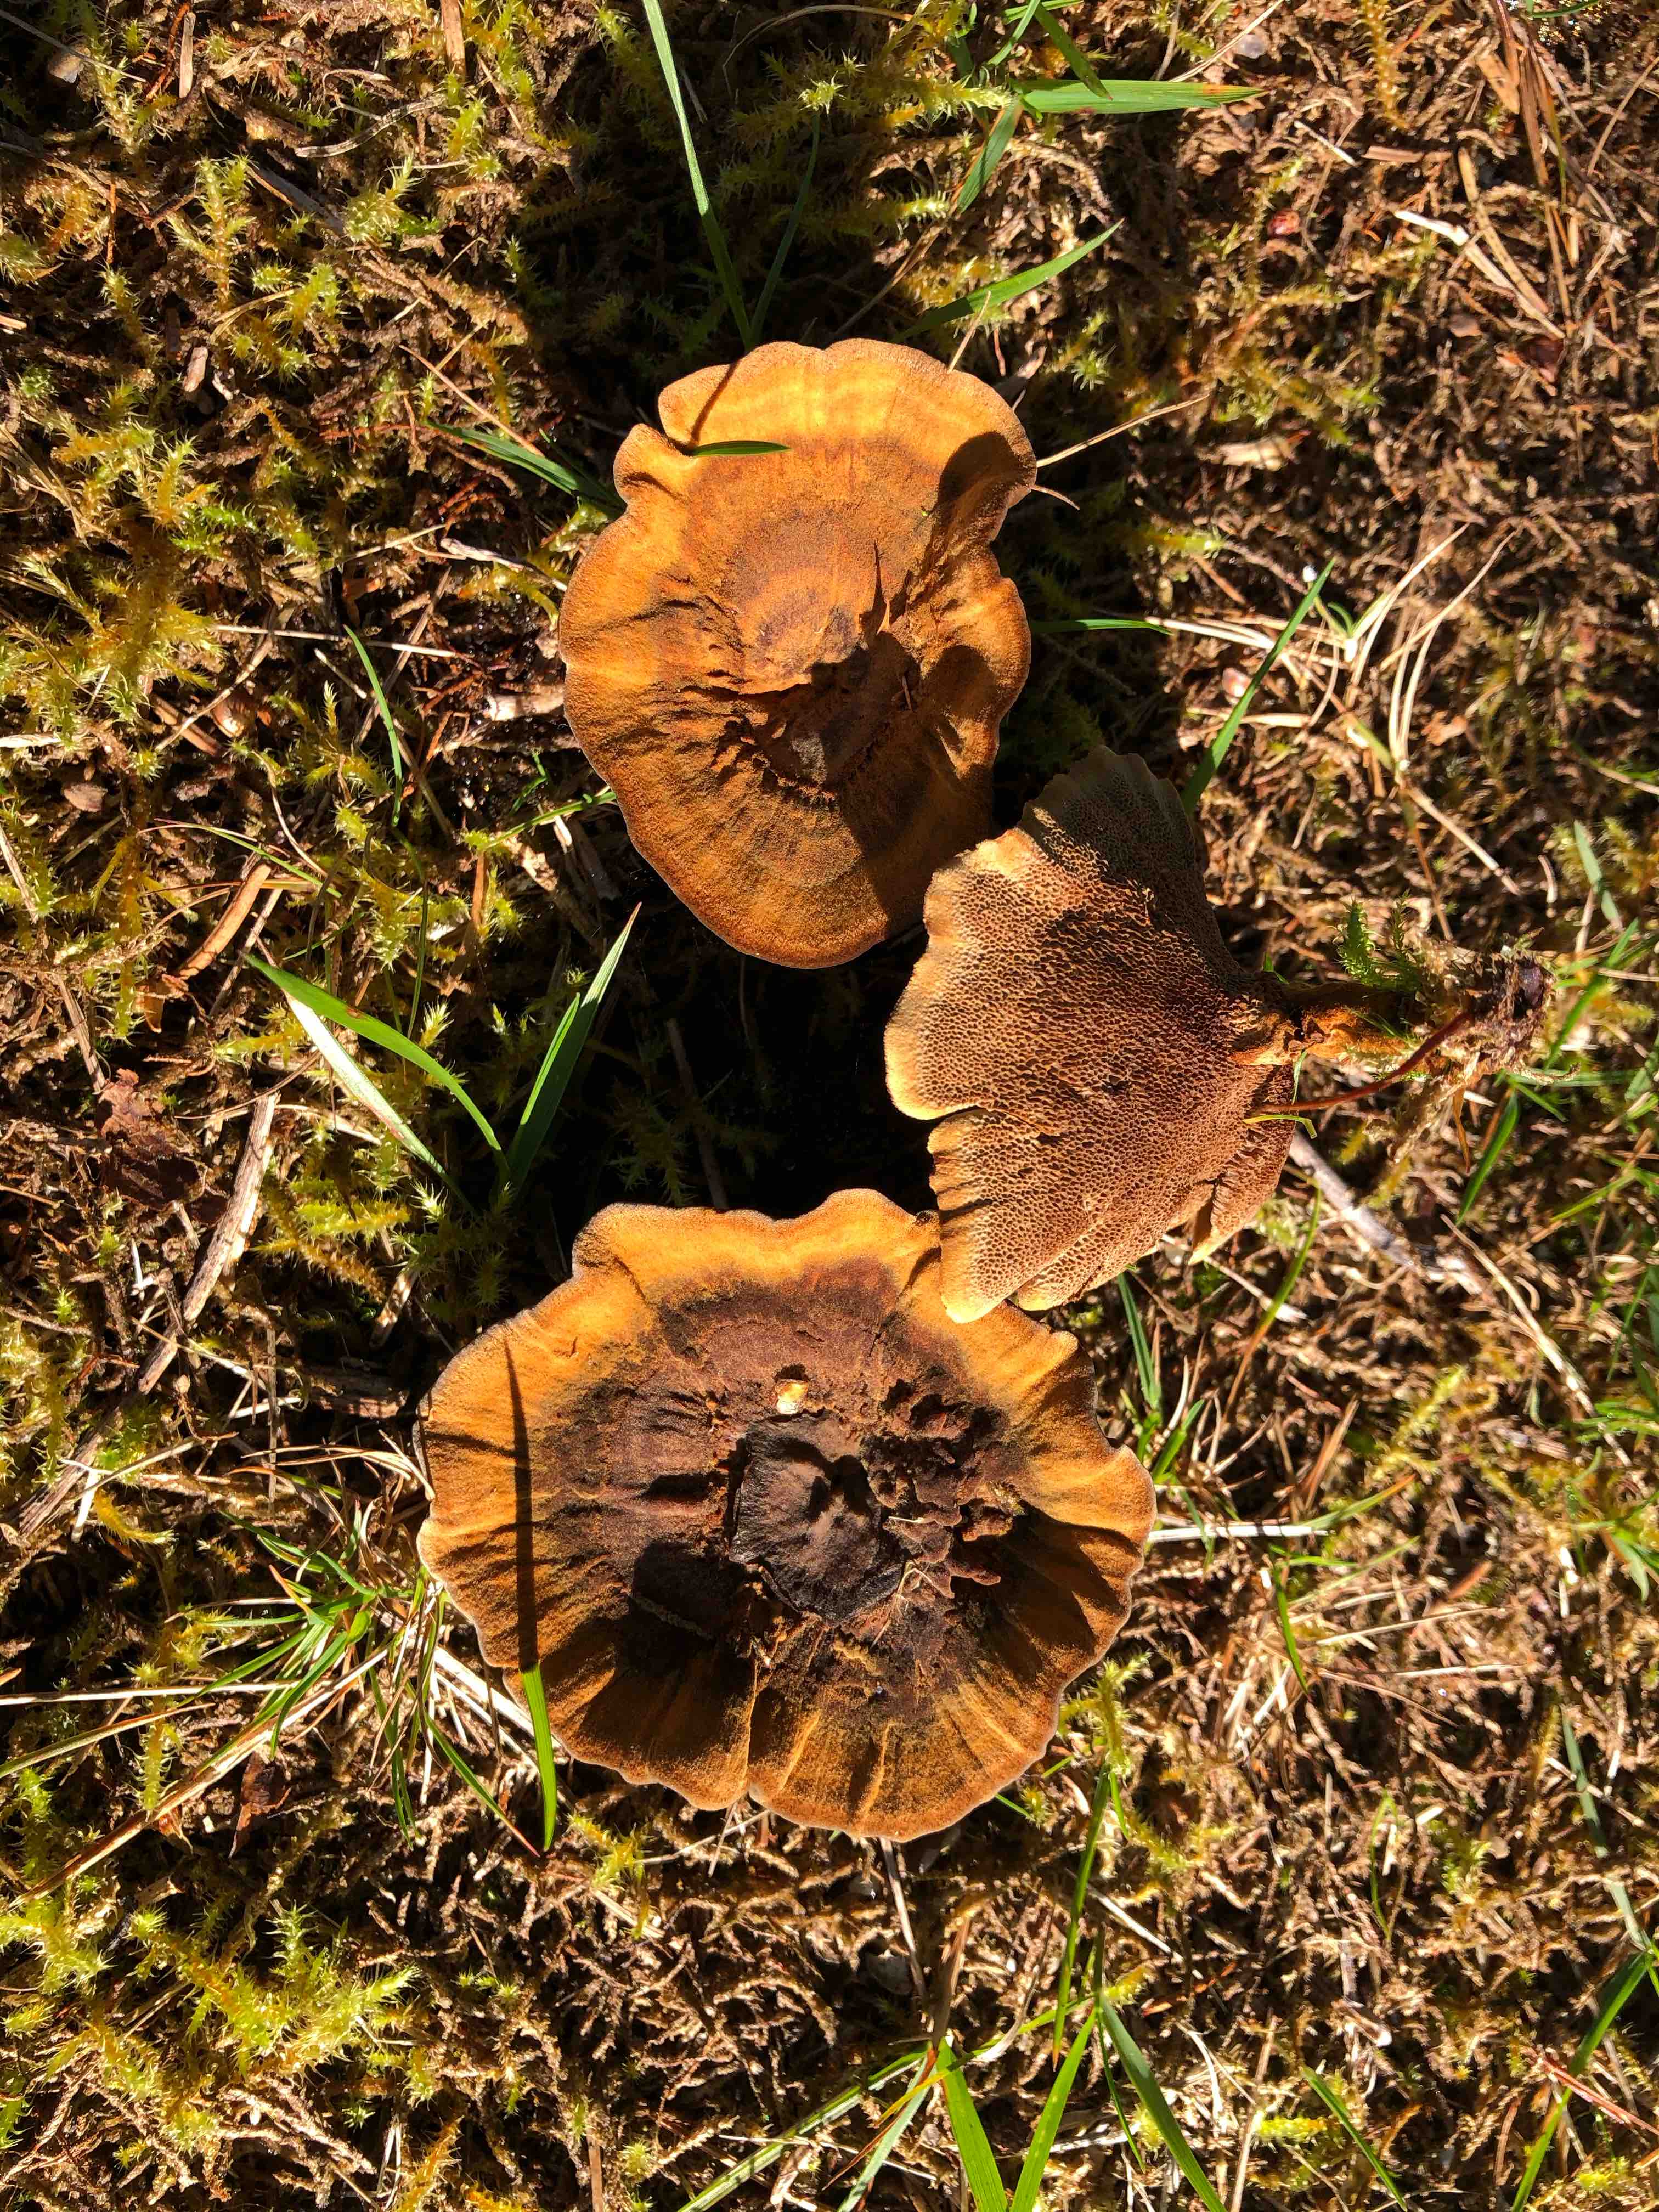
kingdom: Fungi
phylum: Basidiomycota
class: Agaricomycetes
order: Hymenochaetales
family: Hymenochaetaceae
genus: Coltricia
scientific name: Coltricia perennis
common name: almindelig sandporesvamp
